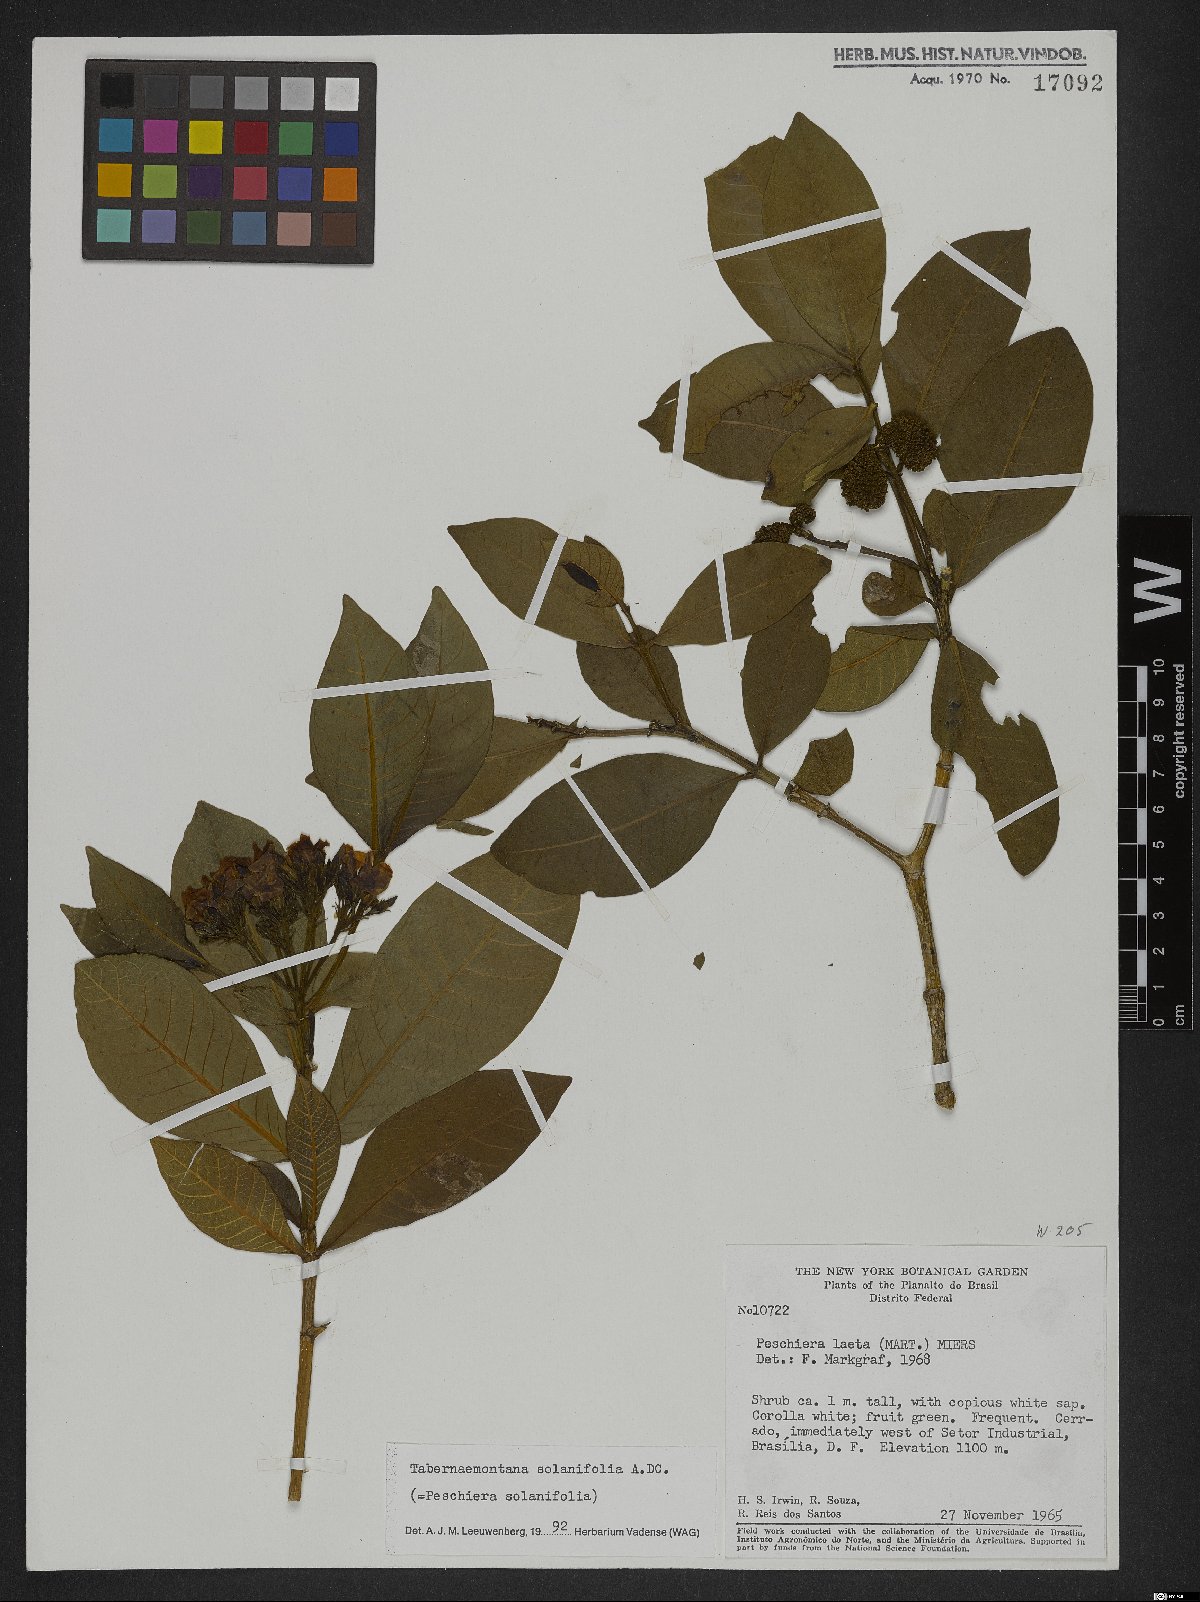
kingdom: Plantae
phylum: Tracheophyta
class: Magnoliopsida
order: Gentianales
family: Apocynaceae
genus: Tabernaemontana
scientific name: Tabernaemontana solanifolia
